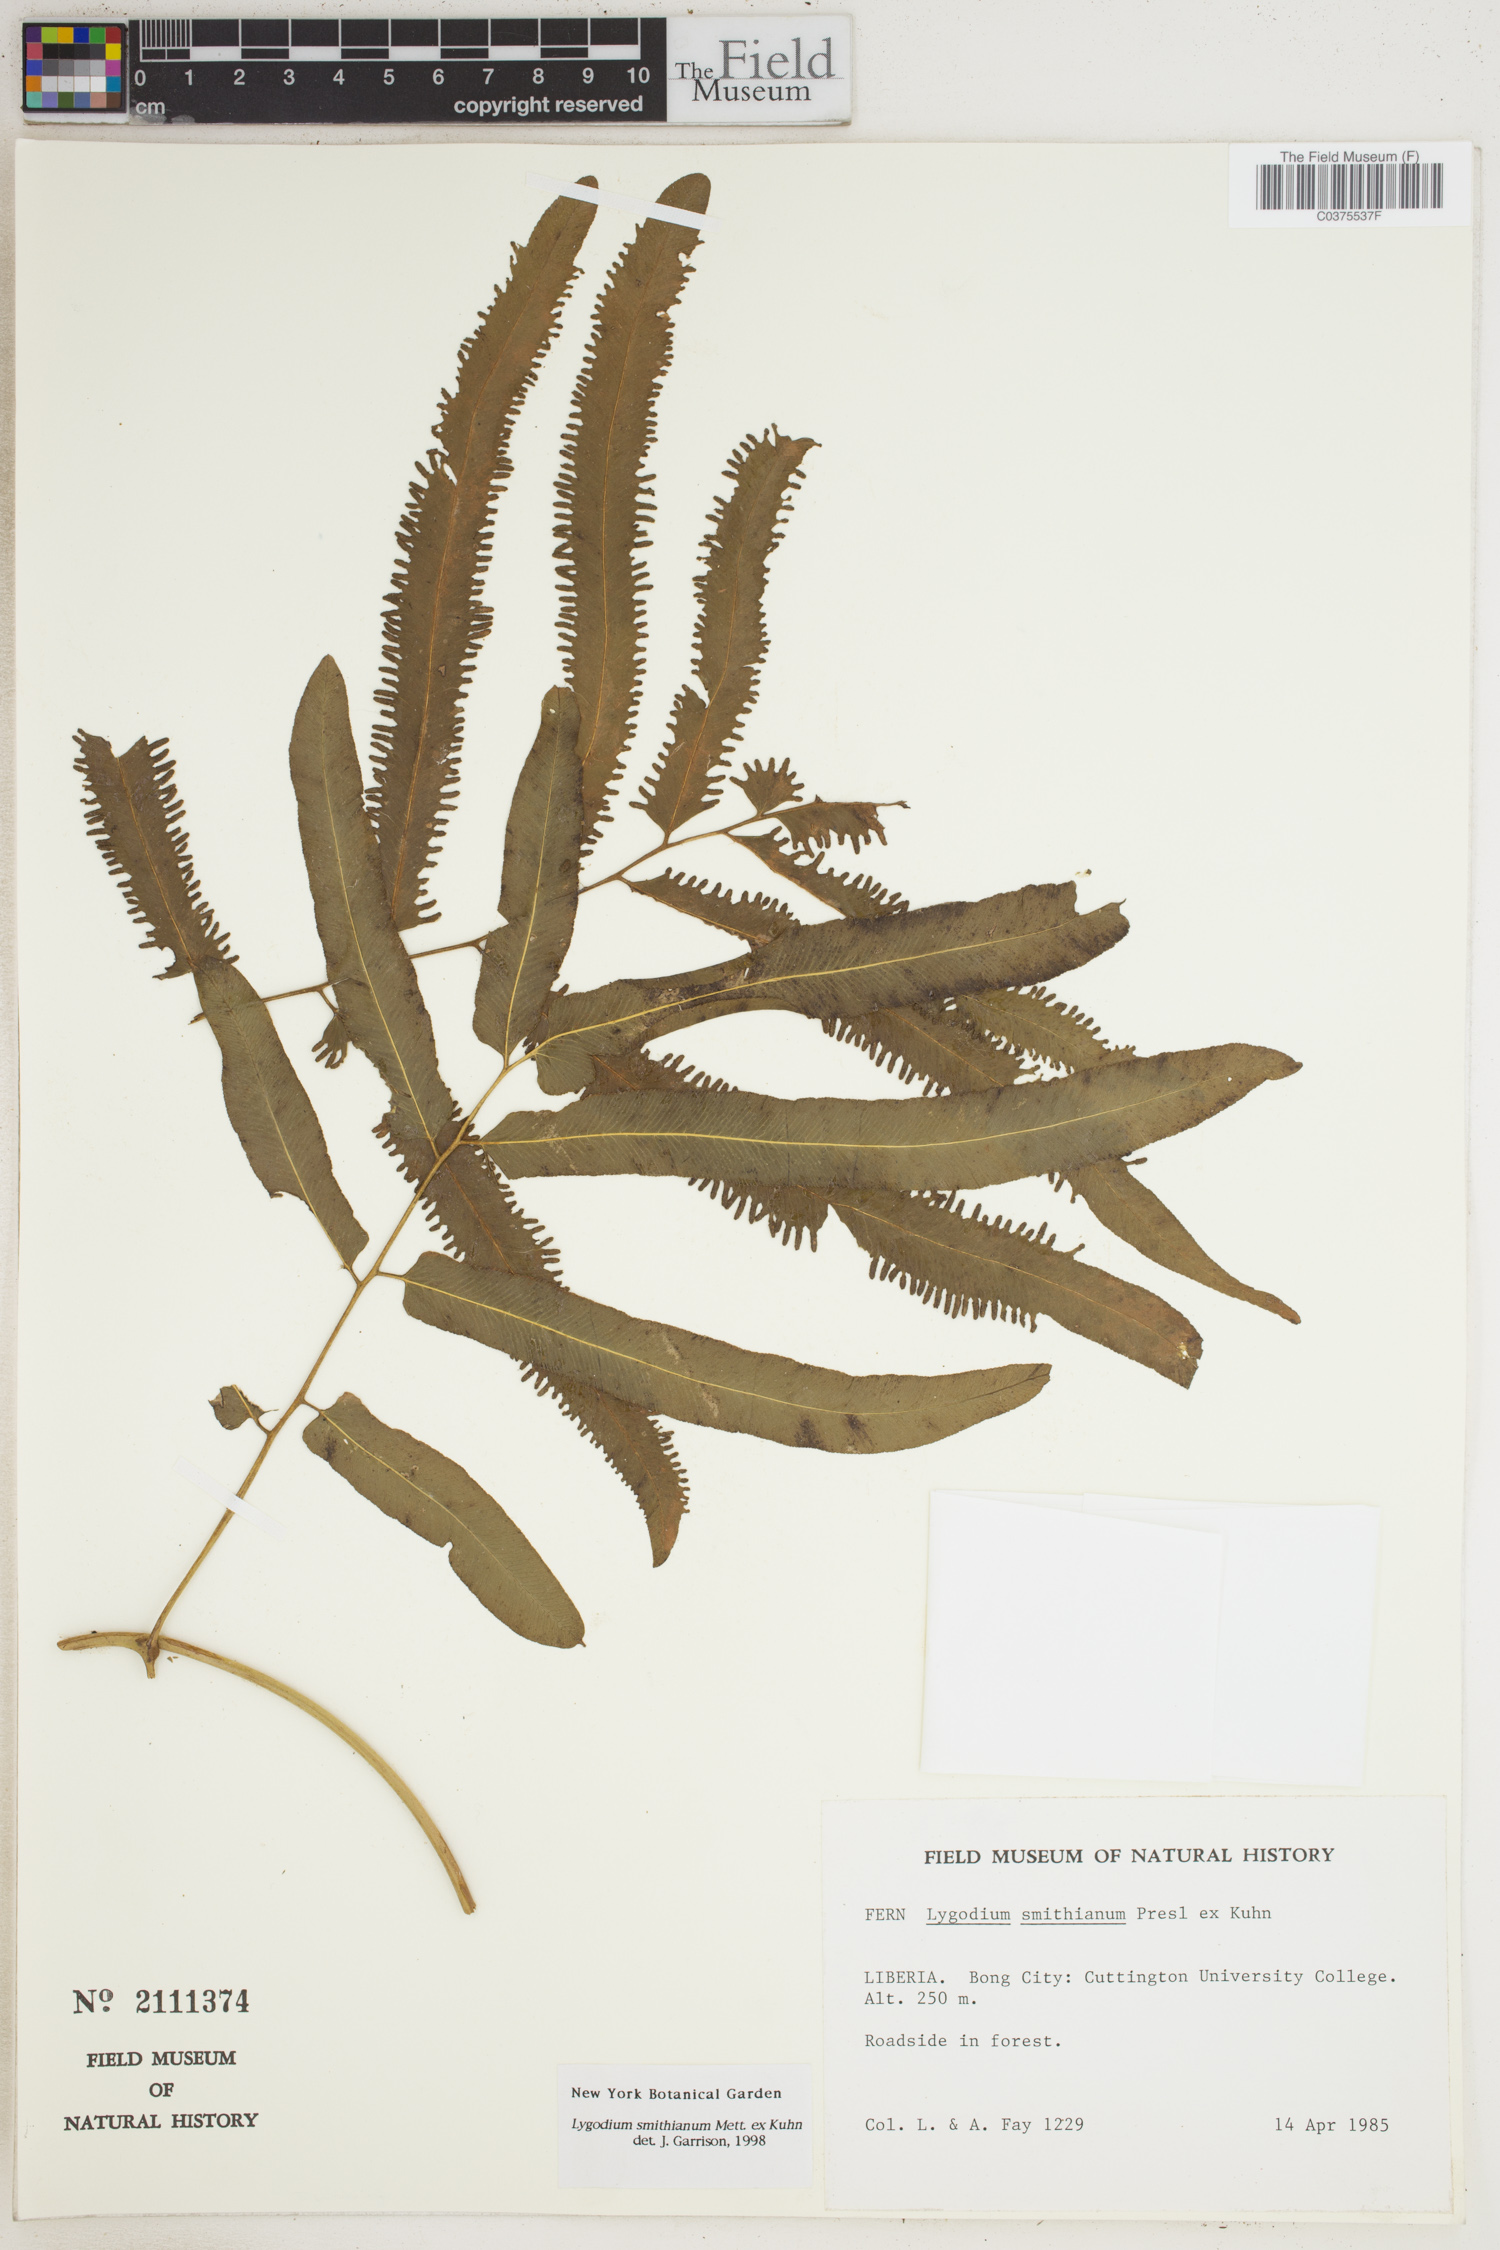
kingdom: Plantae
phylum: Tracheophyta
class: Polypodiopsida
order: Schizaeales
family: Lygodiaceae
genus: Lygodium
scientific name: Lygodium smithianum
